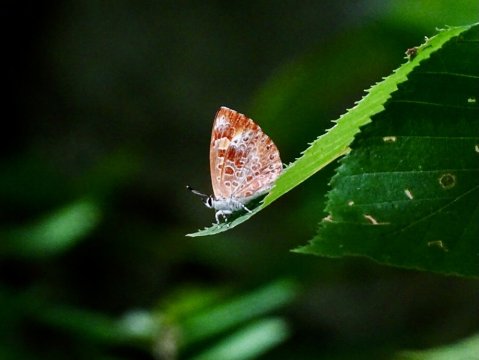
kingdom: Animalia
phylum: Arthropoda
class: Insecta
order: Lepidoptera
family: Lycaenidae
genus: Feniseca
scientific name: Feniseca tarquinius
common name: Harvester
